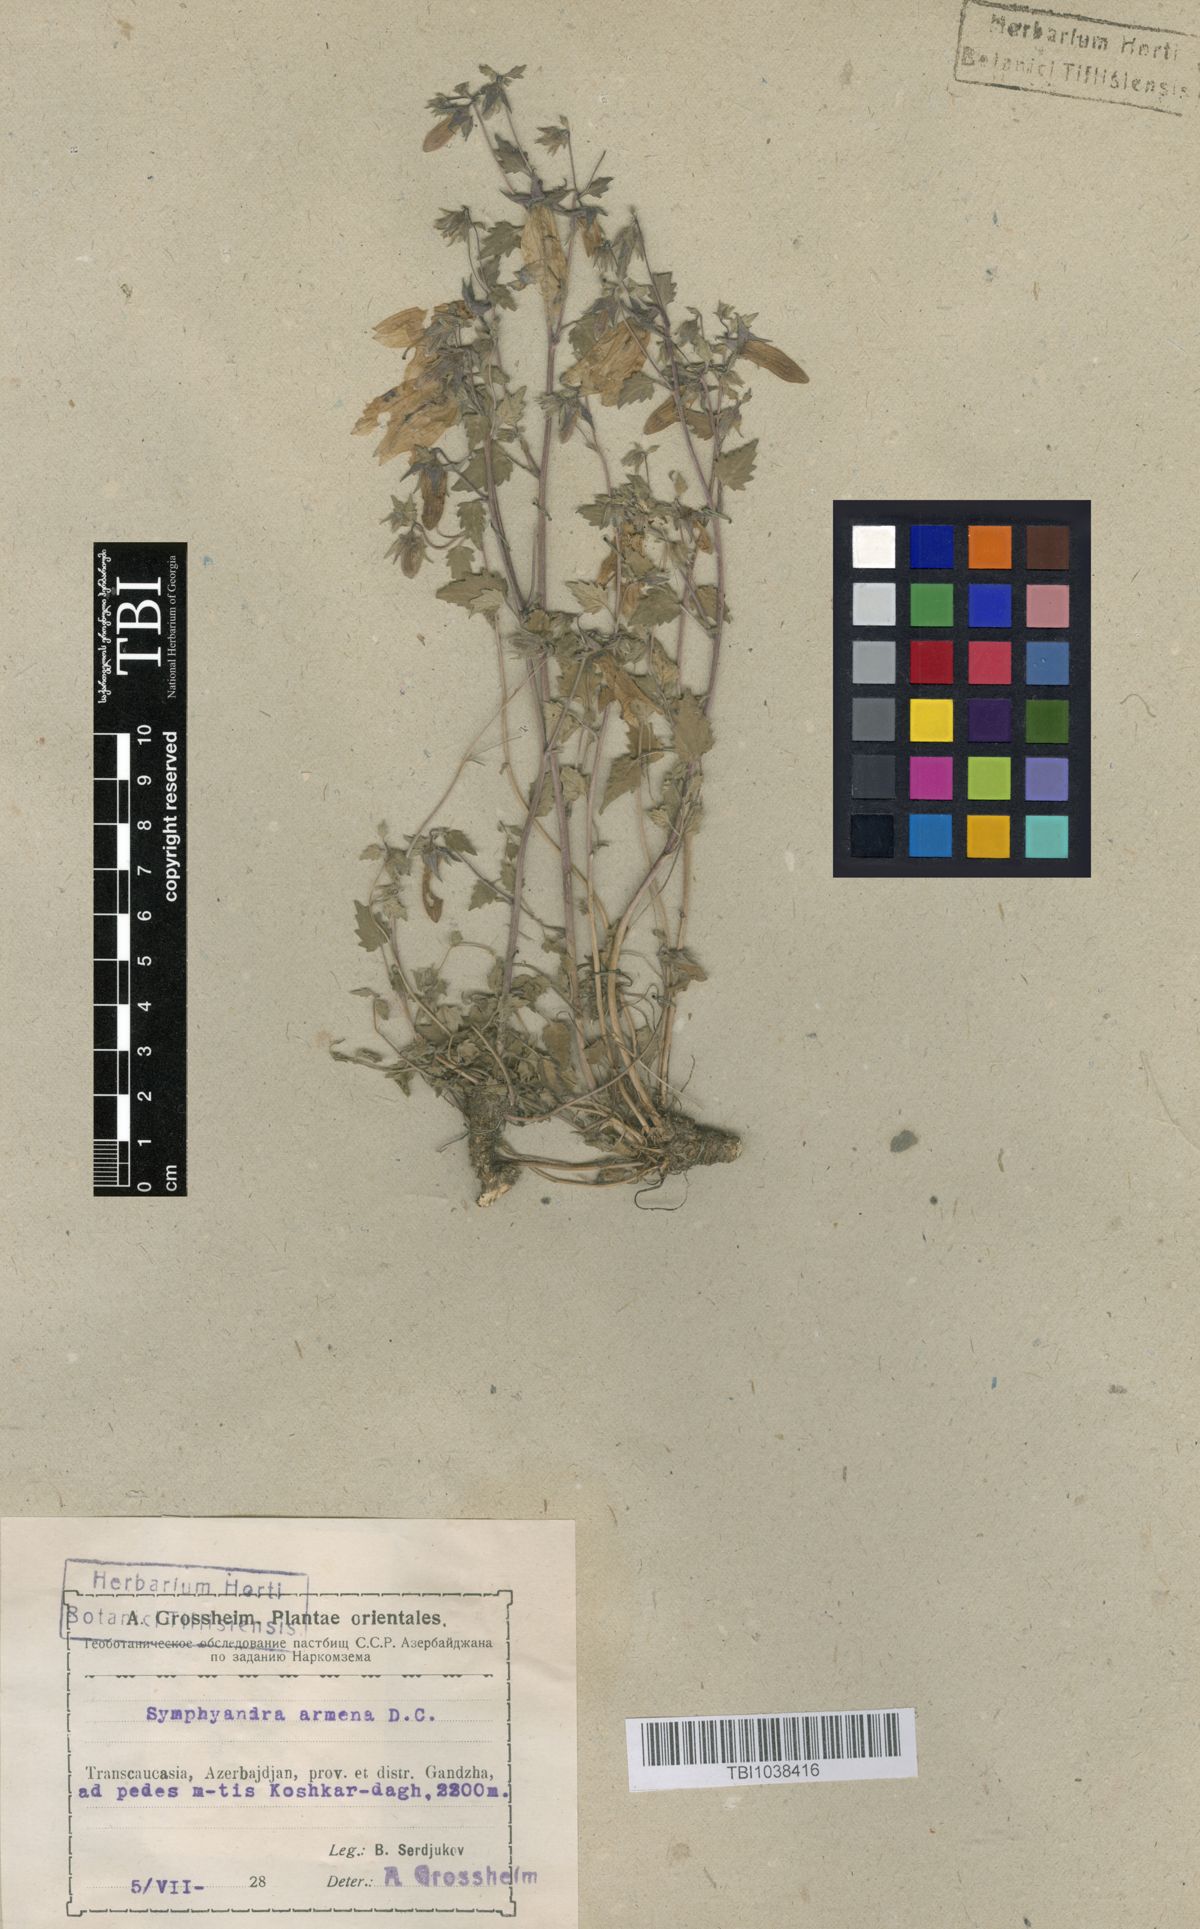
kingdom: Plantae
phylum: Tracheophyta
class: Magnoliopsida
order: Asterales
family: Campanulaceae
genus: Campanula
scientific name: Campanula armena
